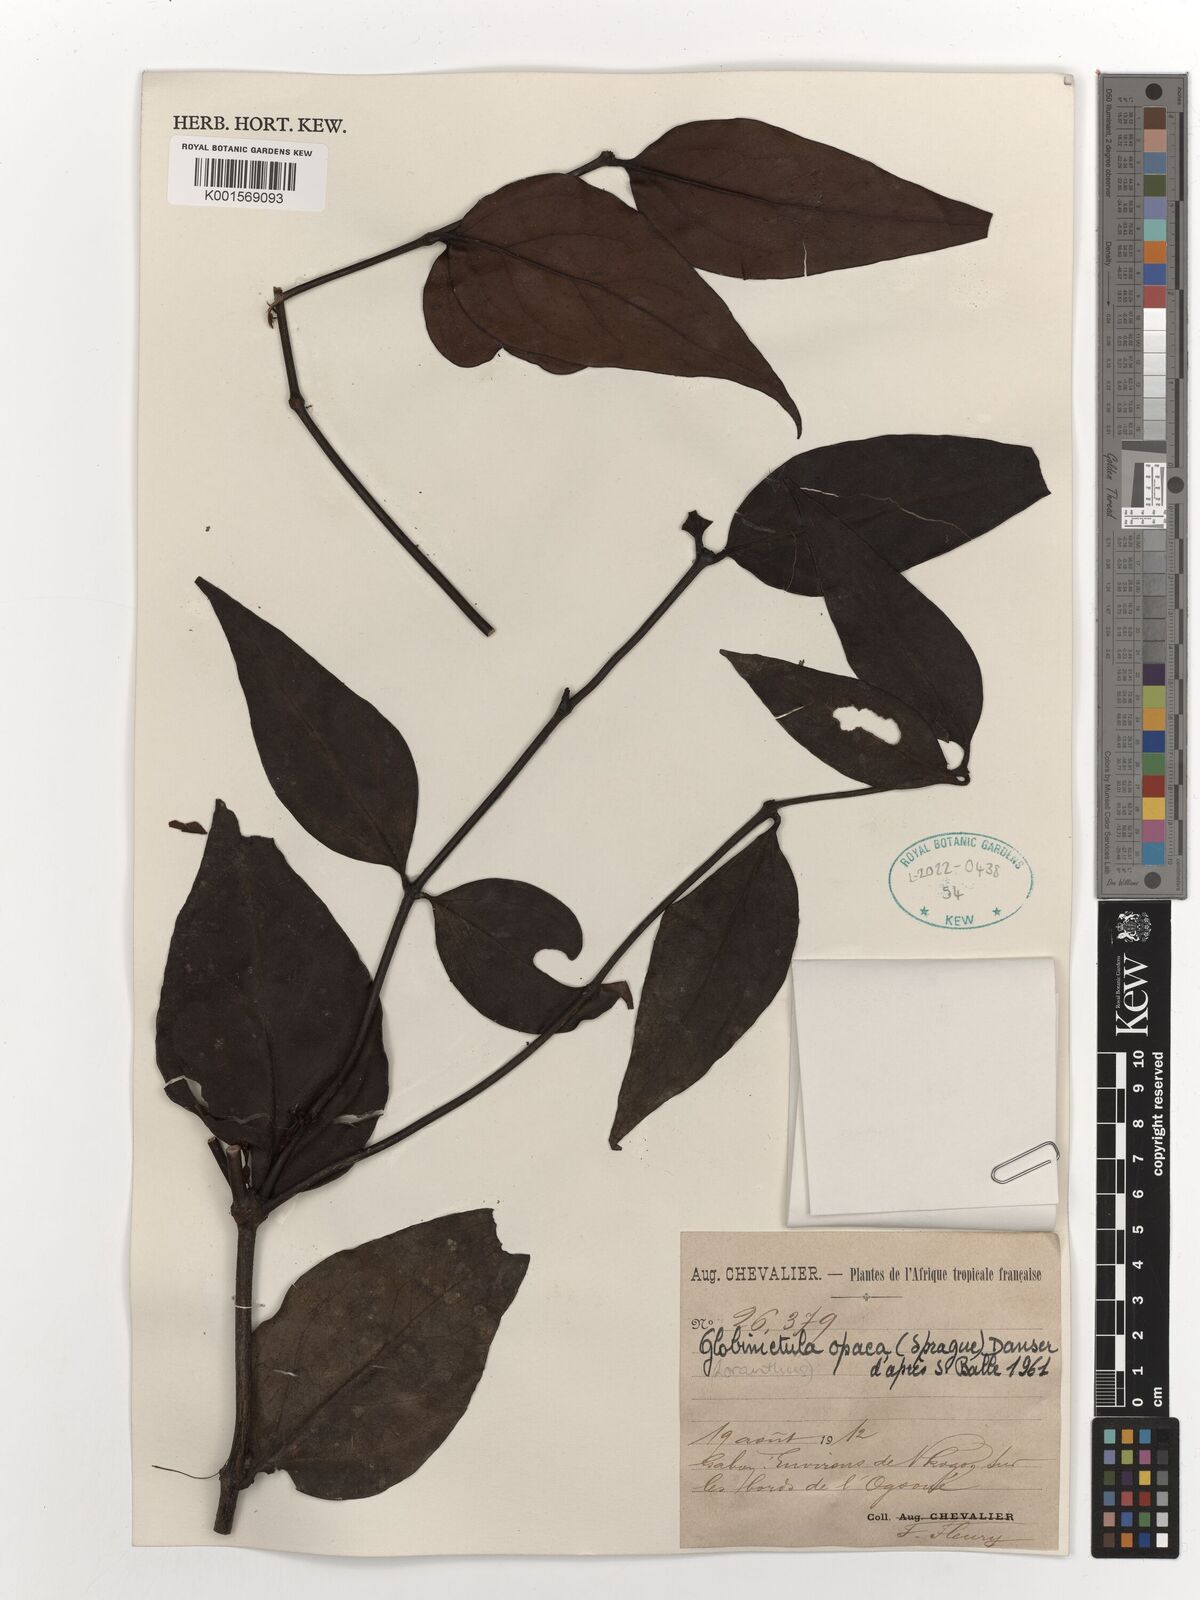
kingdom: Plantae
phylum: Tracheophyta
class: Magnoliopsida
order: Santalales
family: Loranthaceae
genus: Globimetula
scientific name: Globimetula dinklagei
